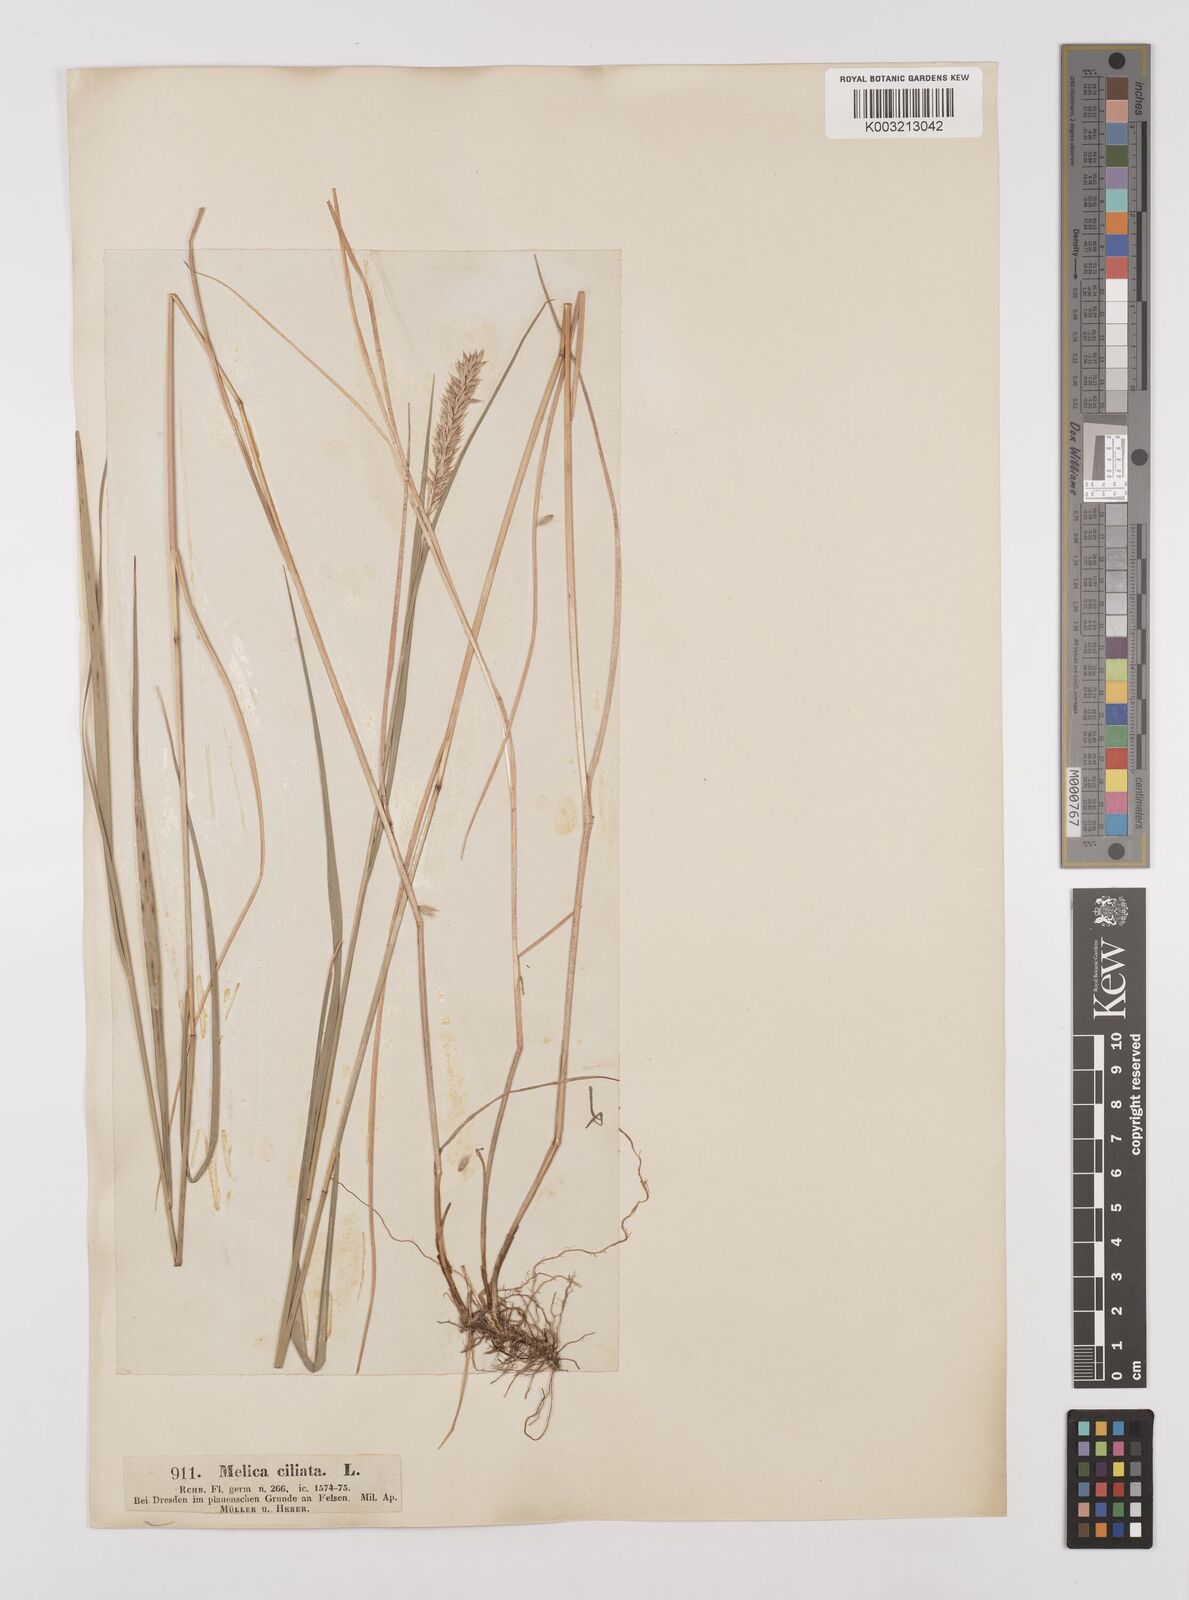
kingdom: Plantae
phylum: Tracheophyta
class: Liliopsida
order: Poales
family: Poaceae
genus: Melica
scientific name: Melica ciliata
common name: Hairy melicgrass
